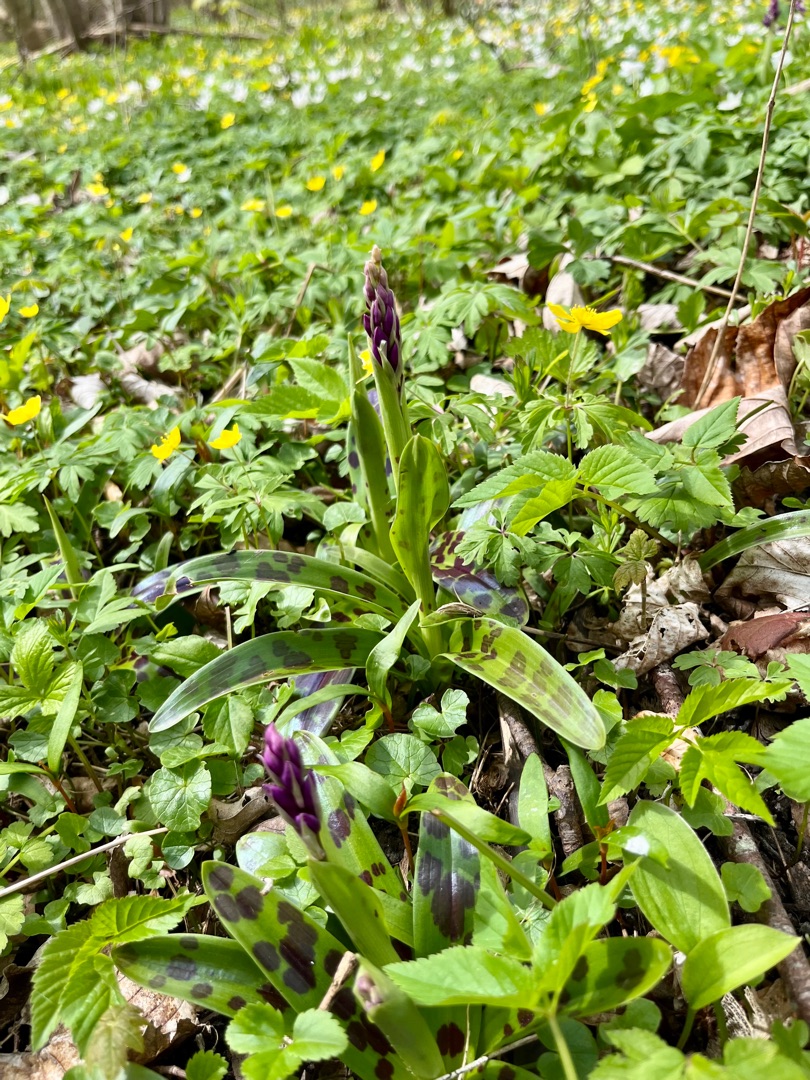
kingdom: Plantae
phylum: Tracheophyta
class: Liliopsida
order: Asparagales
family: Orchidaceae
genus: Orchis
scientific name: Orchis mascula
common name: Tyndakset gøgeurt
